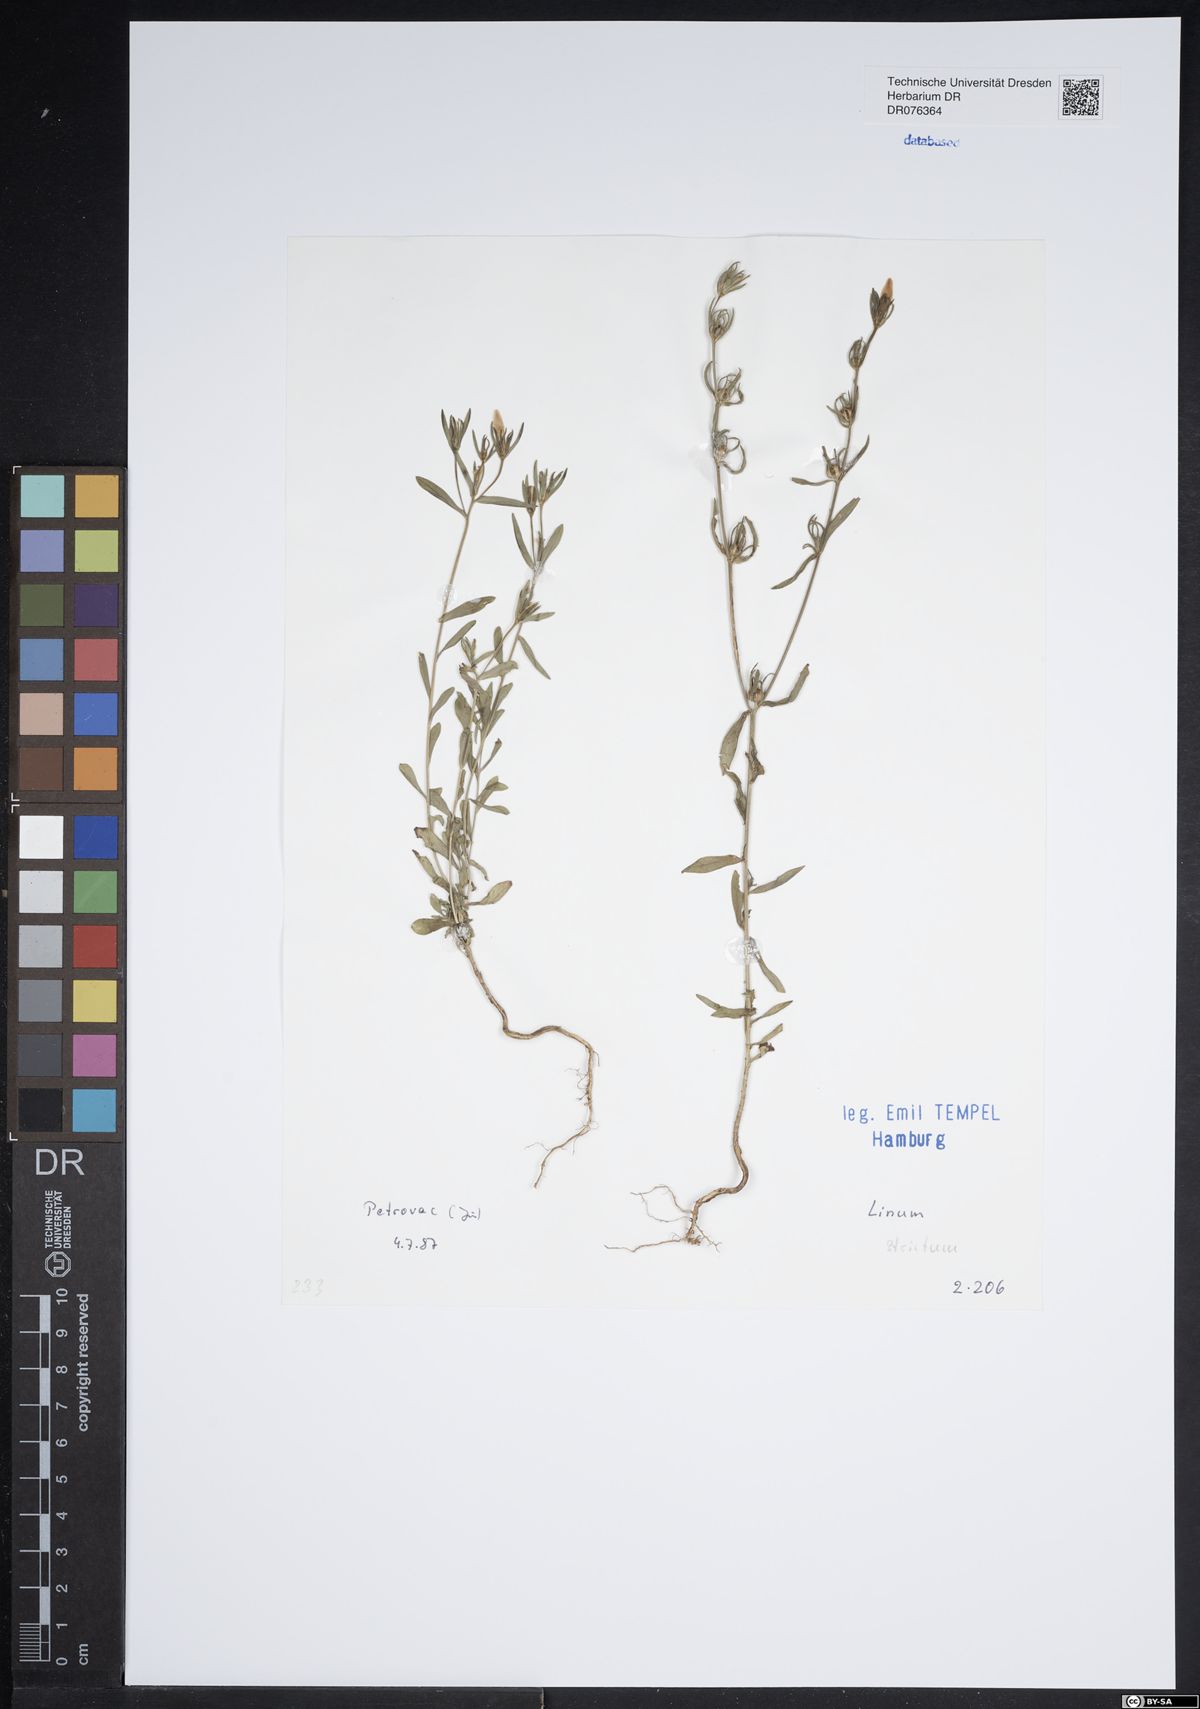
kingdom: Plantae
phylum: Tracheophyta
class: Magnoliopsida
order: Malpighiales
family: Linaceae
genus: Linum
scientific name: Linum strictum
